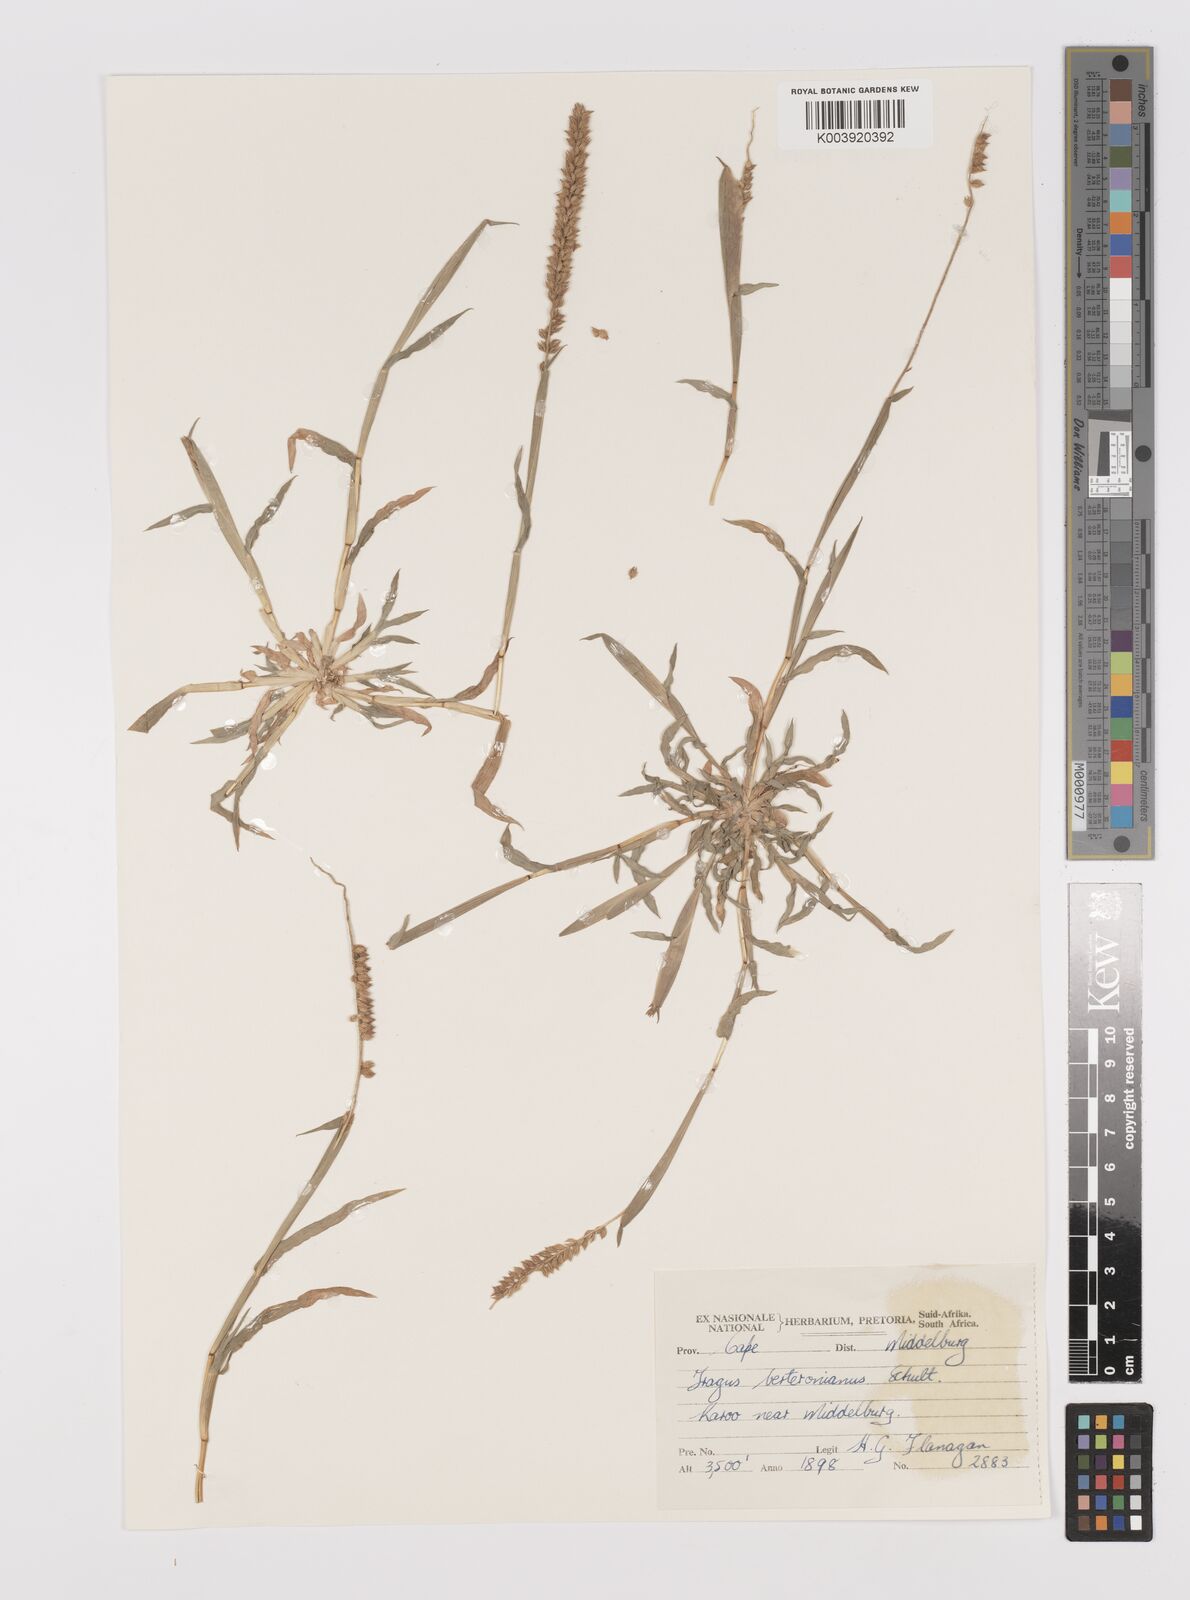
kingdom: Plantae
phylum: Tracheophyta
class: Liliopsida
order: Poales
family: Poaceae
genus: Tragus
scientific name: Tragus berteronianus
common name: African bur-grass
